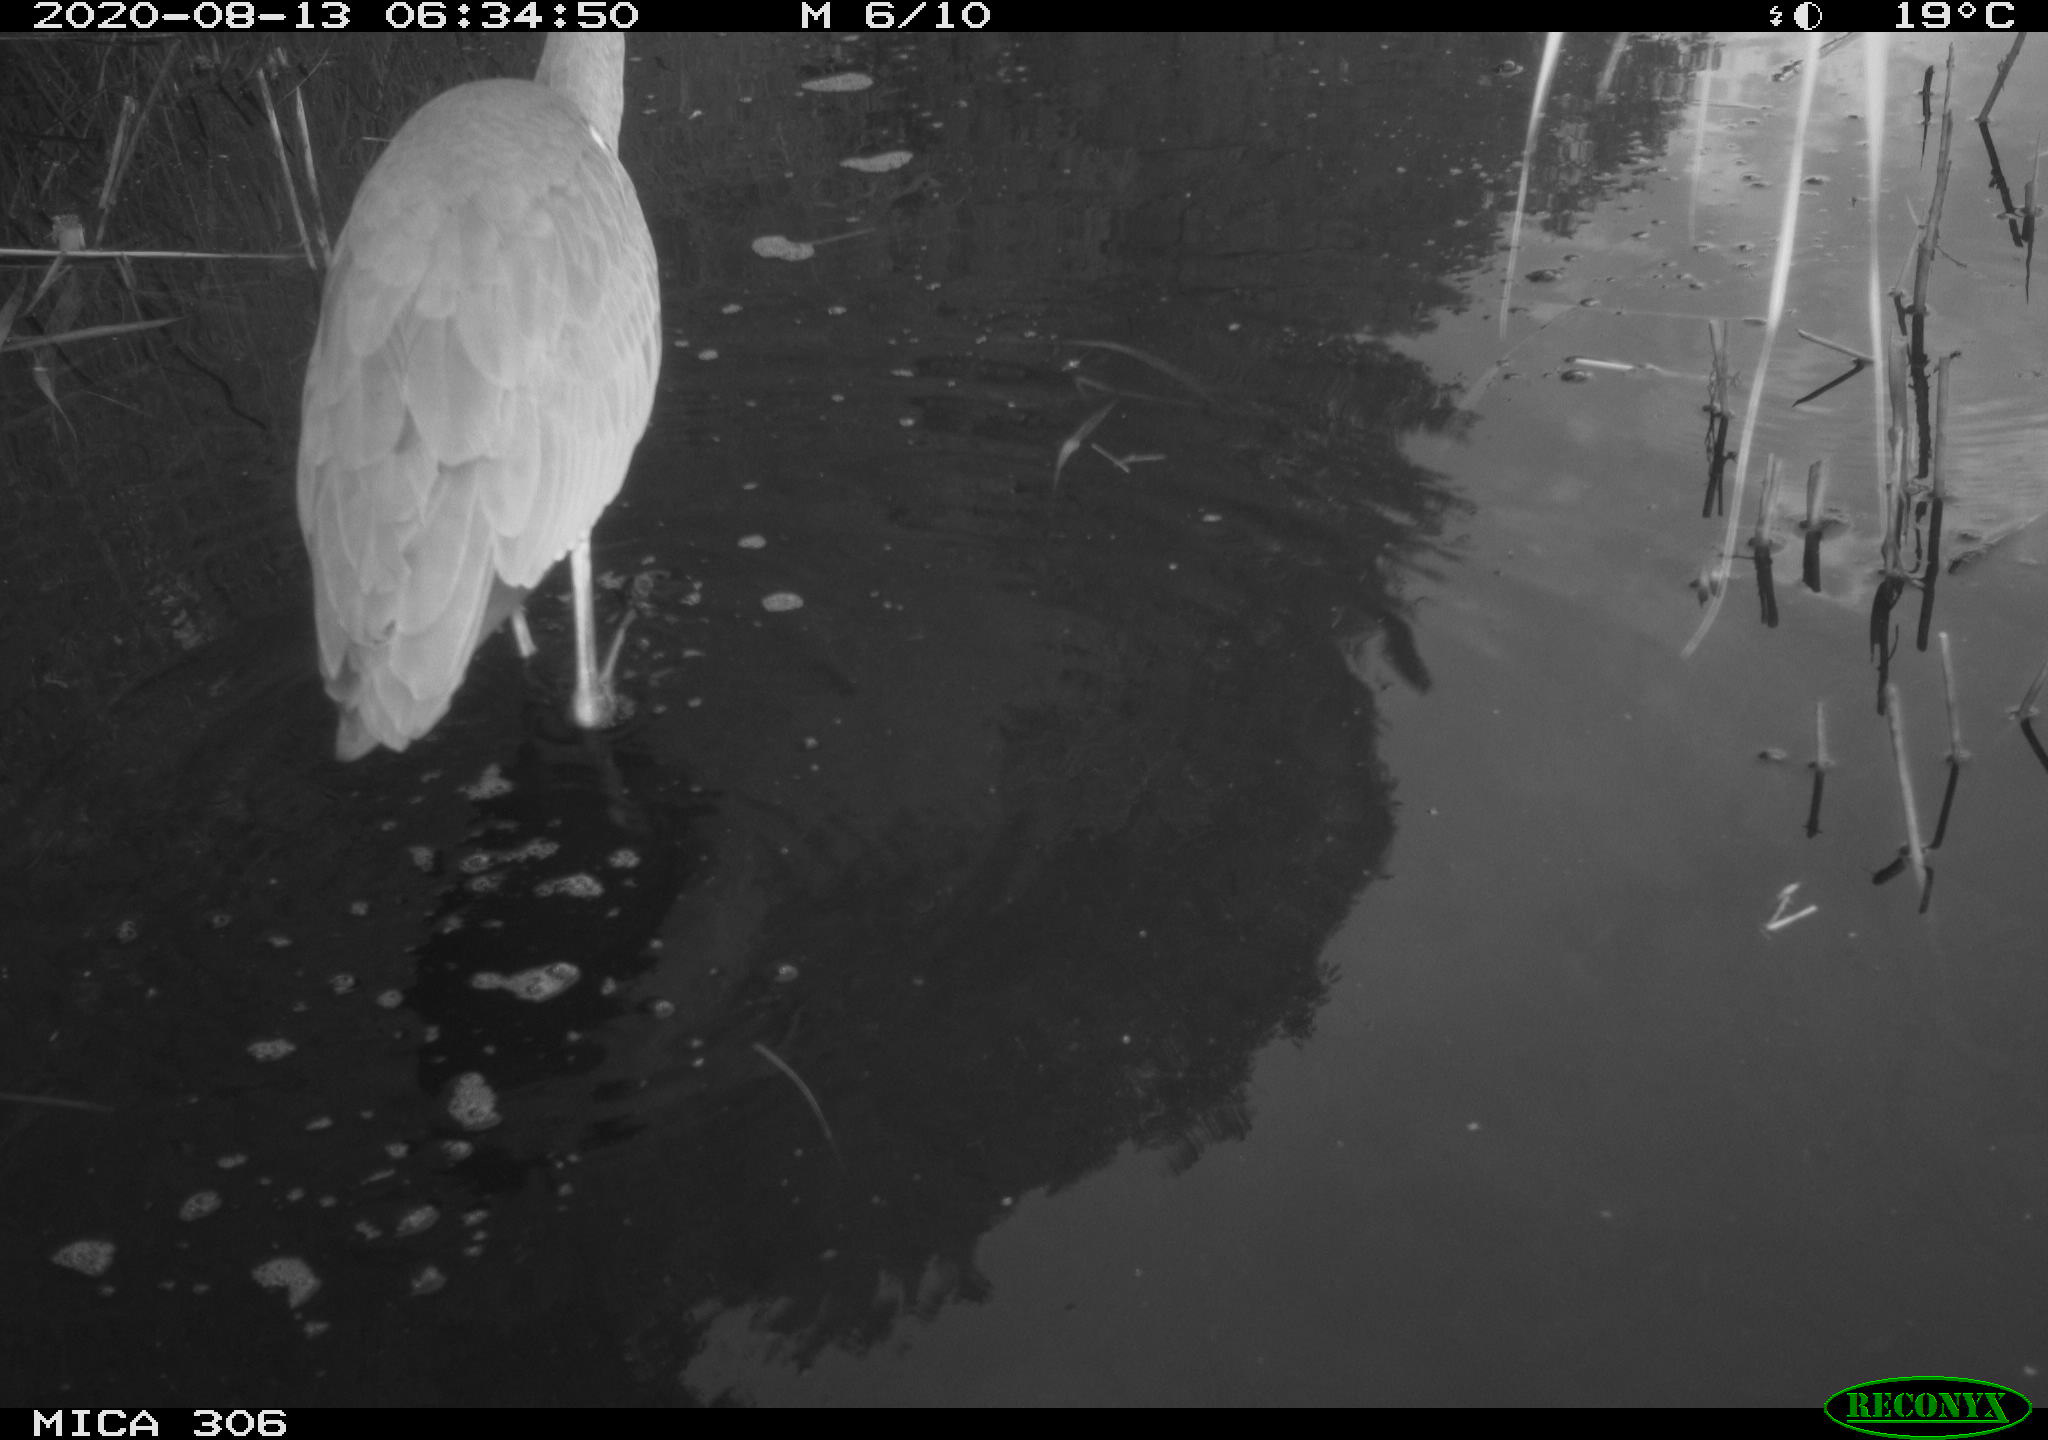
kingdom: Animalia
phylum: Chordata
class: Aves
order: Pelecaniformes
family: Ardeidae
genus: Ardea
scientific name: Ardea cinerea
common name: Grey heron
